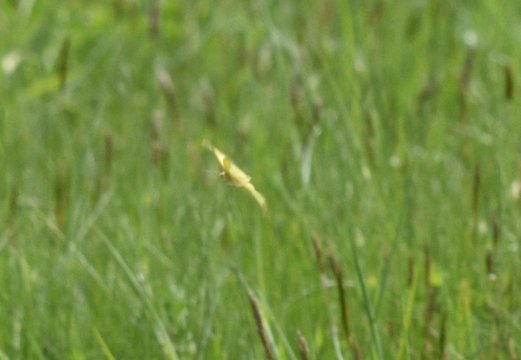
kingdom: Animalia
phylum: Arthropoda
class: Insecta
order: Lepidoptera
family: Pieridae
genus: Colias
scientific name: Colias philodice
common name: Clouded Sulphur
